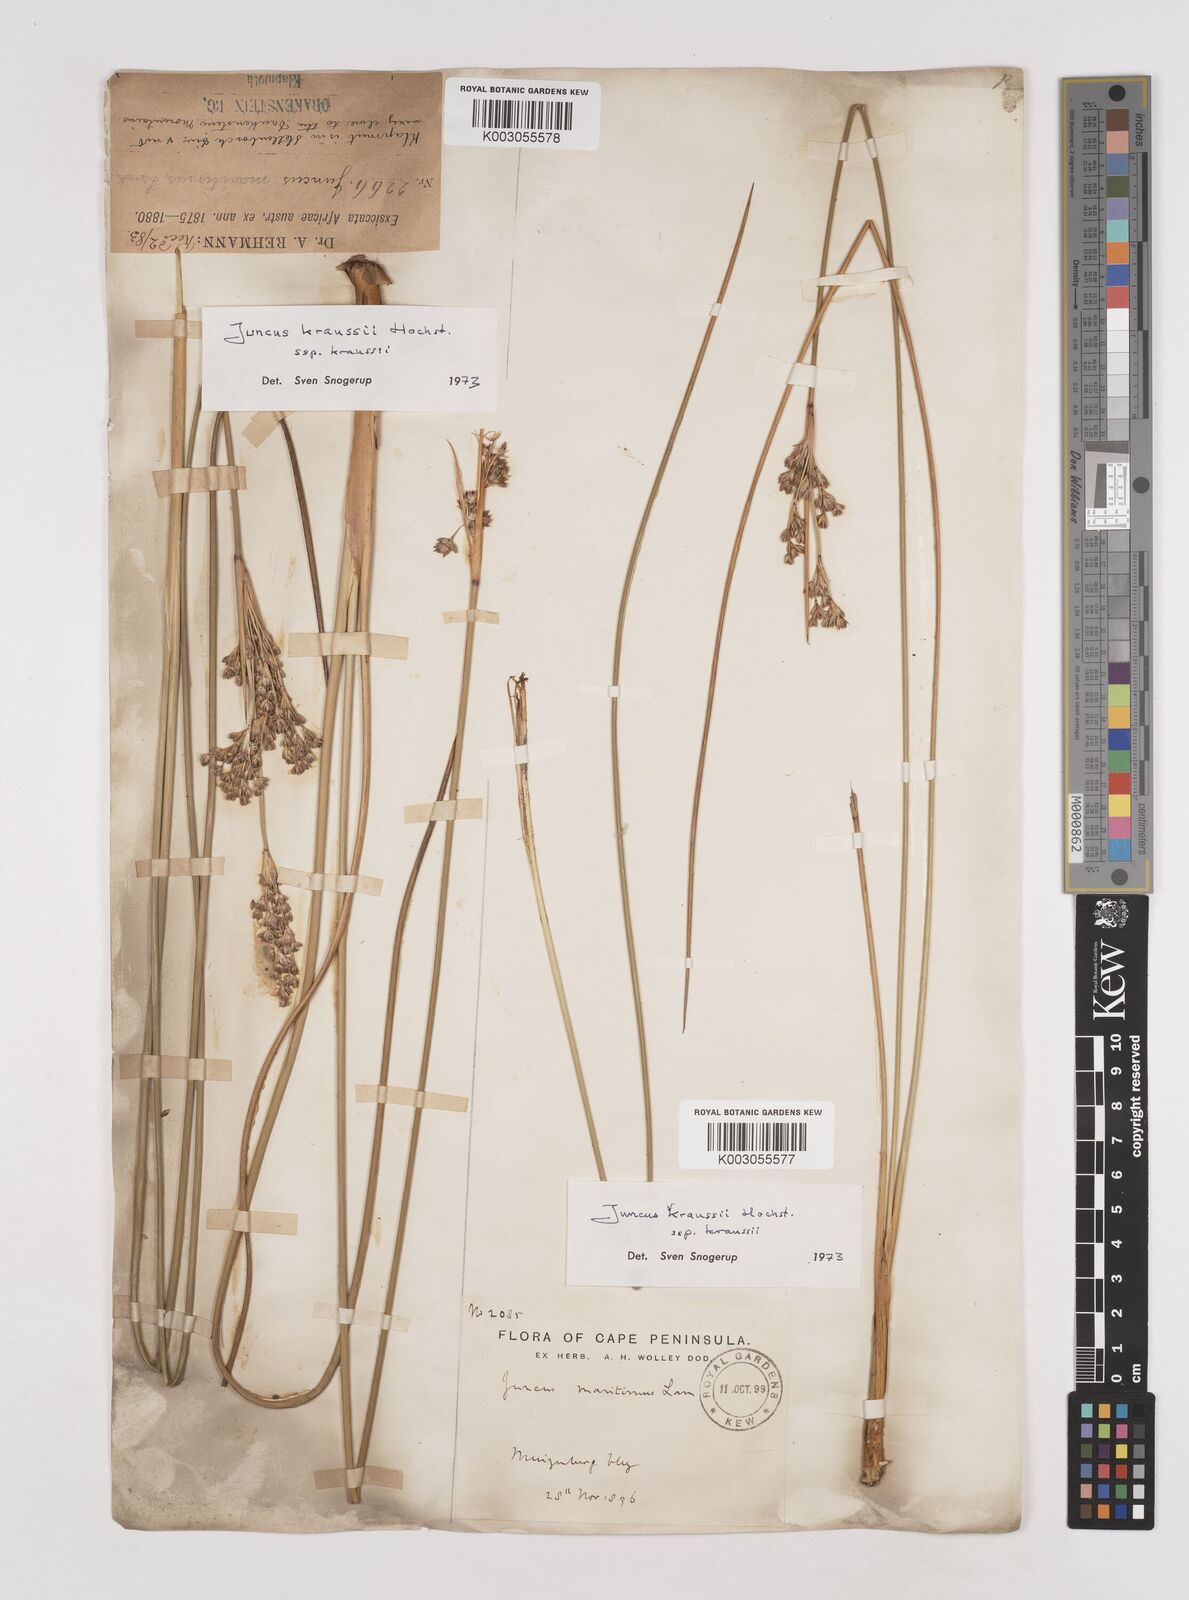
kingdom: Plantae
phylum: Tracheophyta
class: Liliopsida
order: Poales
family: Juncaceae
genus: Juncus
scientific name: Juncus kraussii
